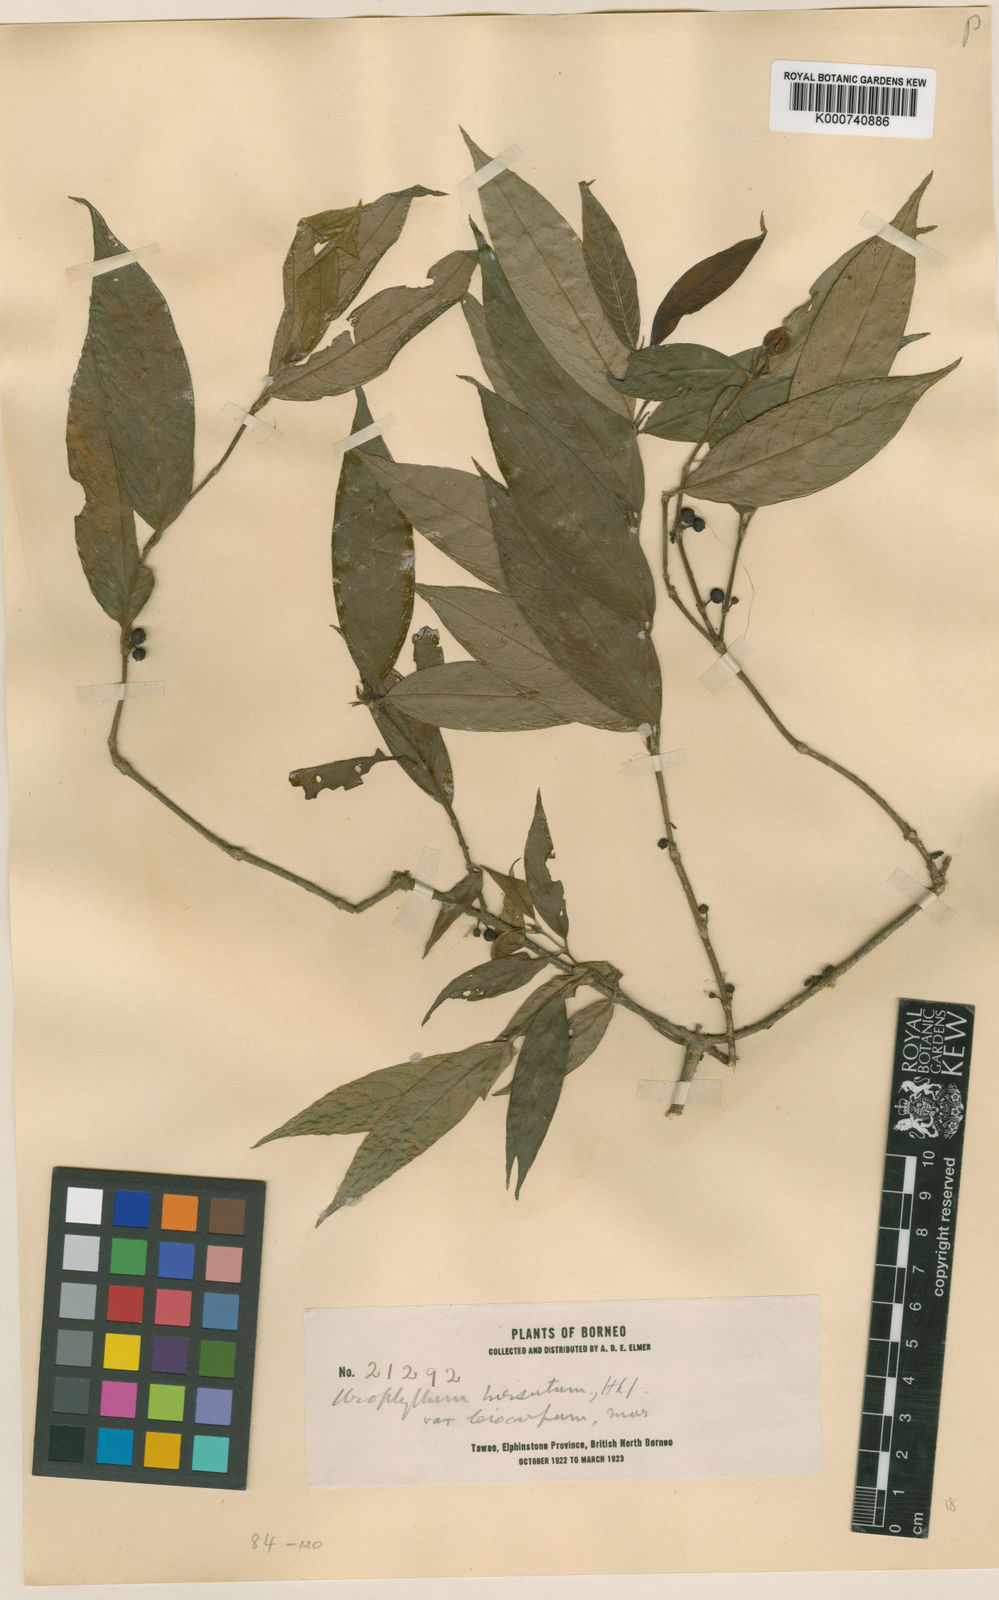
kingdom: Plantae
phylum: Tracheophyta
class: Magnoliopsida
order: Gentianales
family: Rubiaceae
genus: Urophyllum
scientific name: Urophyllum hirsutum
